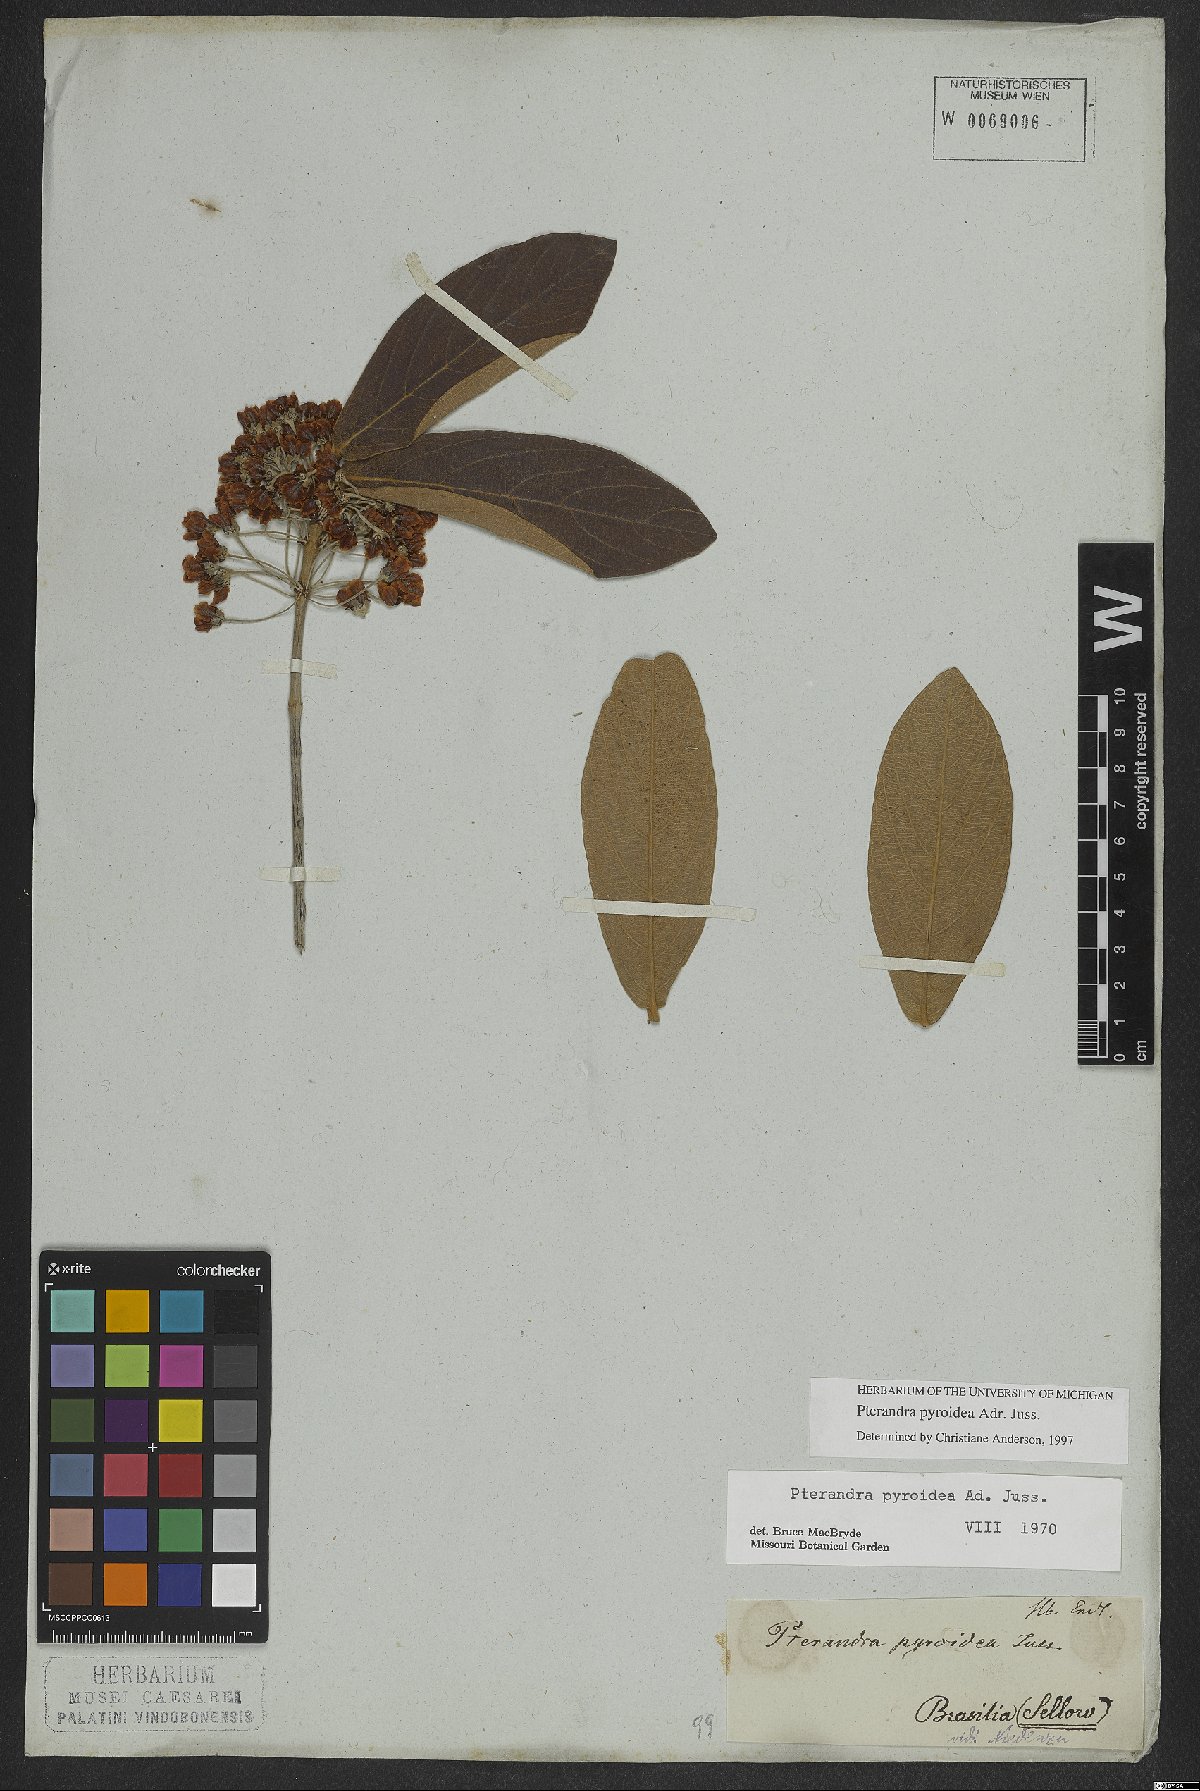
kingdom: Plantae
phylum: Tracheophyta
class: Magnoliopsida
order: Malpighiales
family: Malpighiaceae
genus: Pterandra
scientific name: Pterandra pyroidea
